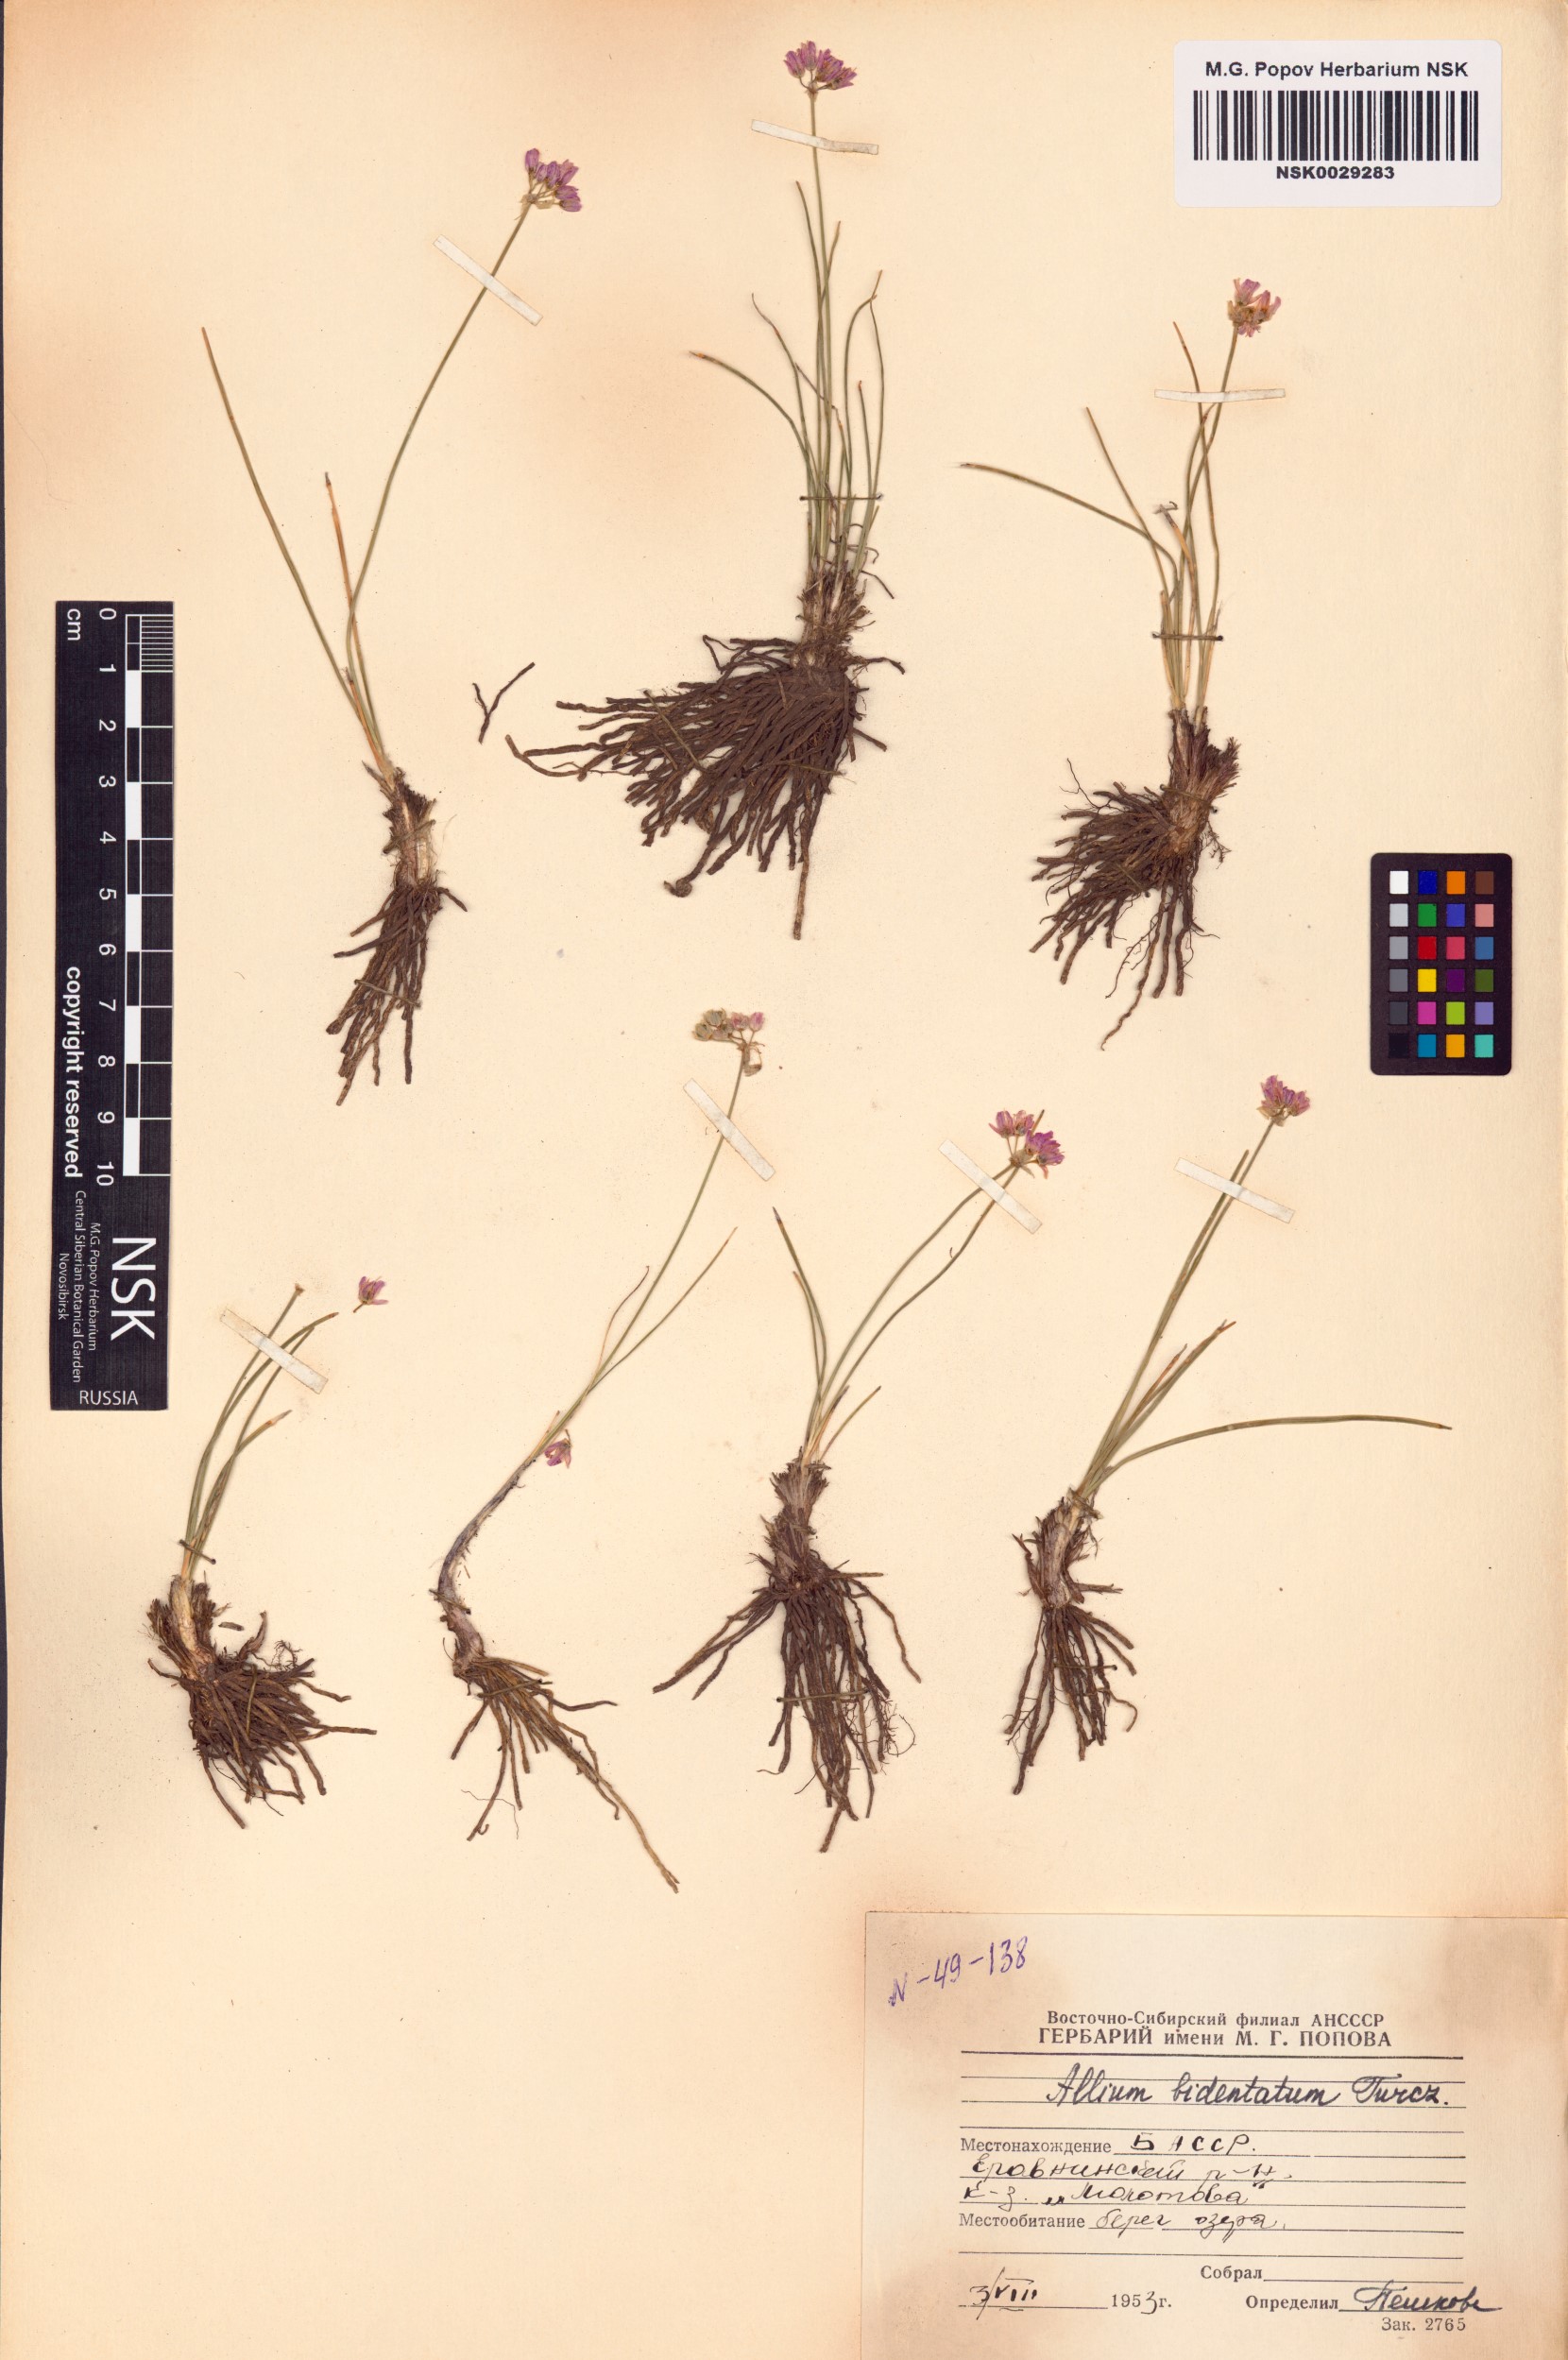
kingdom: Plantae
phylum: Tracheophyta
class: Liliopsida
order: Asparagales
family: Amaryllidaceae
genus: Allium
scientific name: Allium bidentatum
